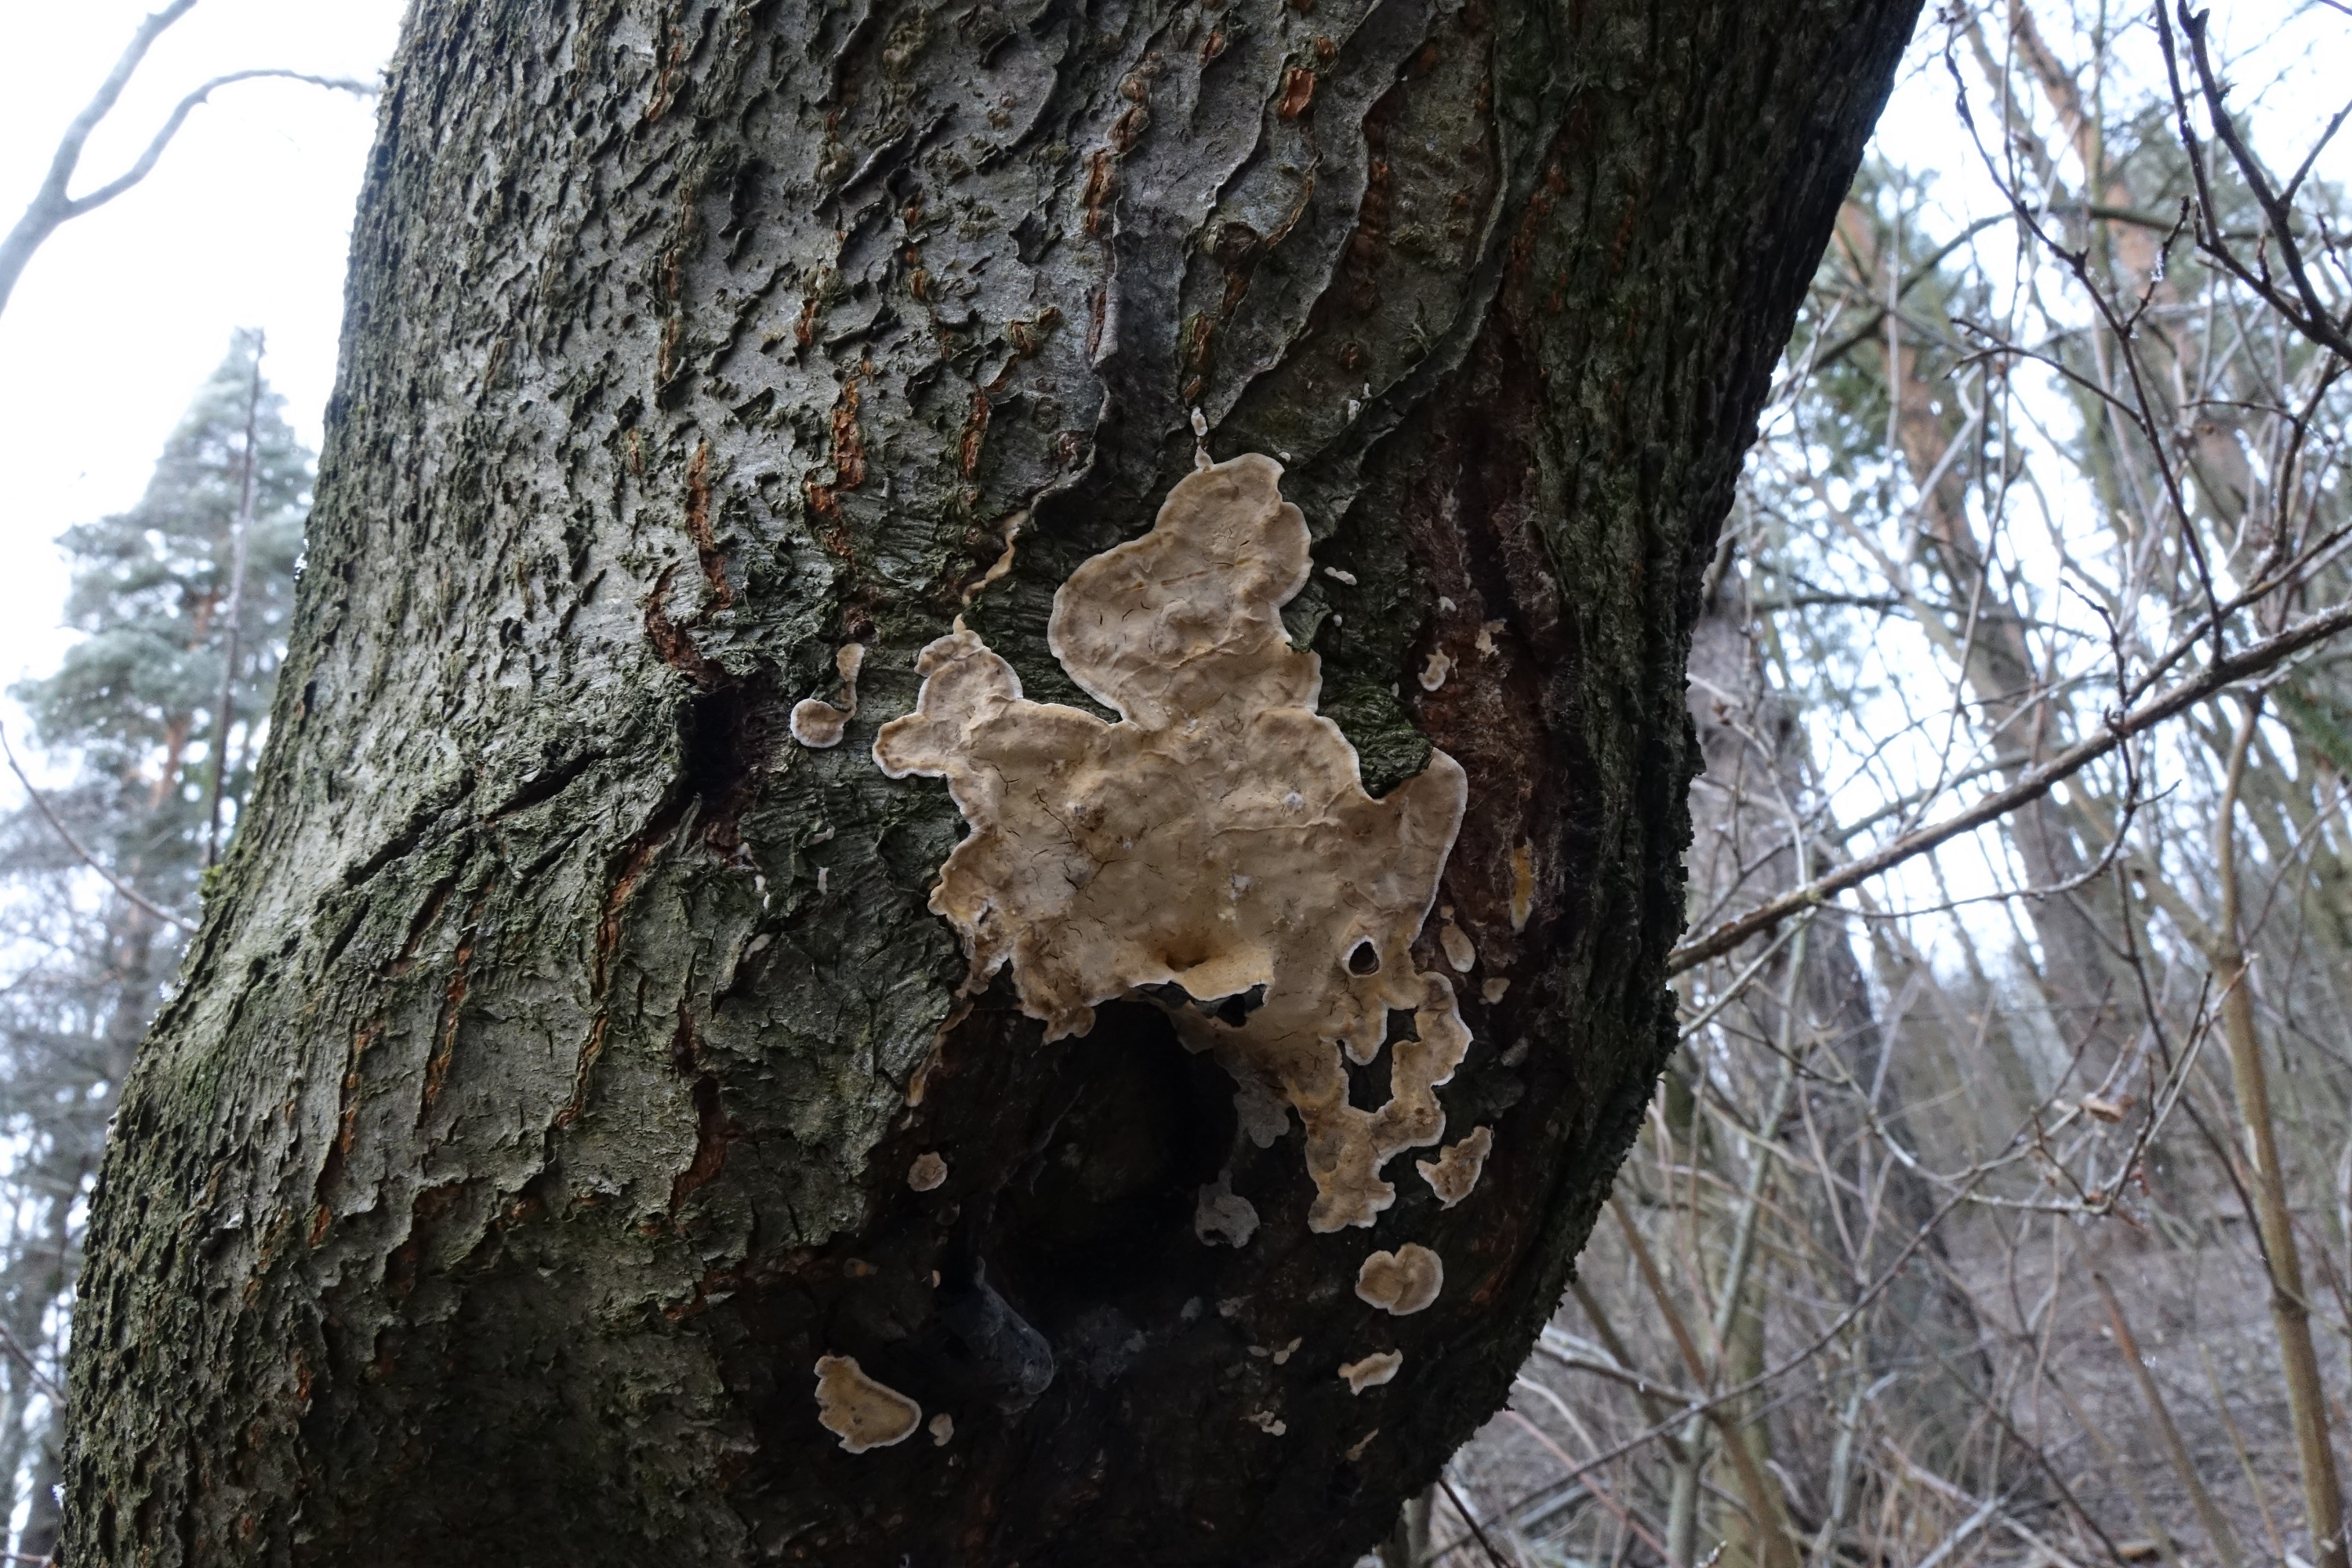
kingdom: Fungi
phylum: Basidiomycota
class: Agaricomycetes
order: Russulales
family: Stereaceae
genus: Stereum
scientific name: Stereum rugosum
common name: Bleeding broadleaf crust
